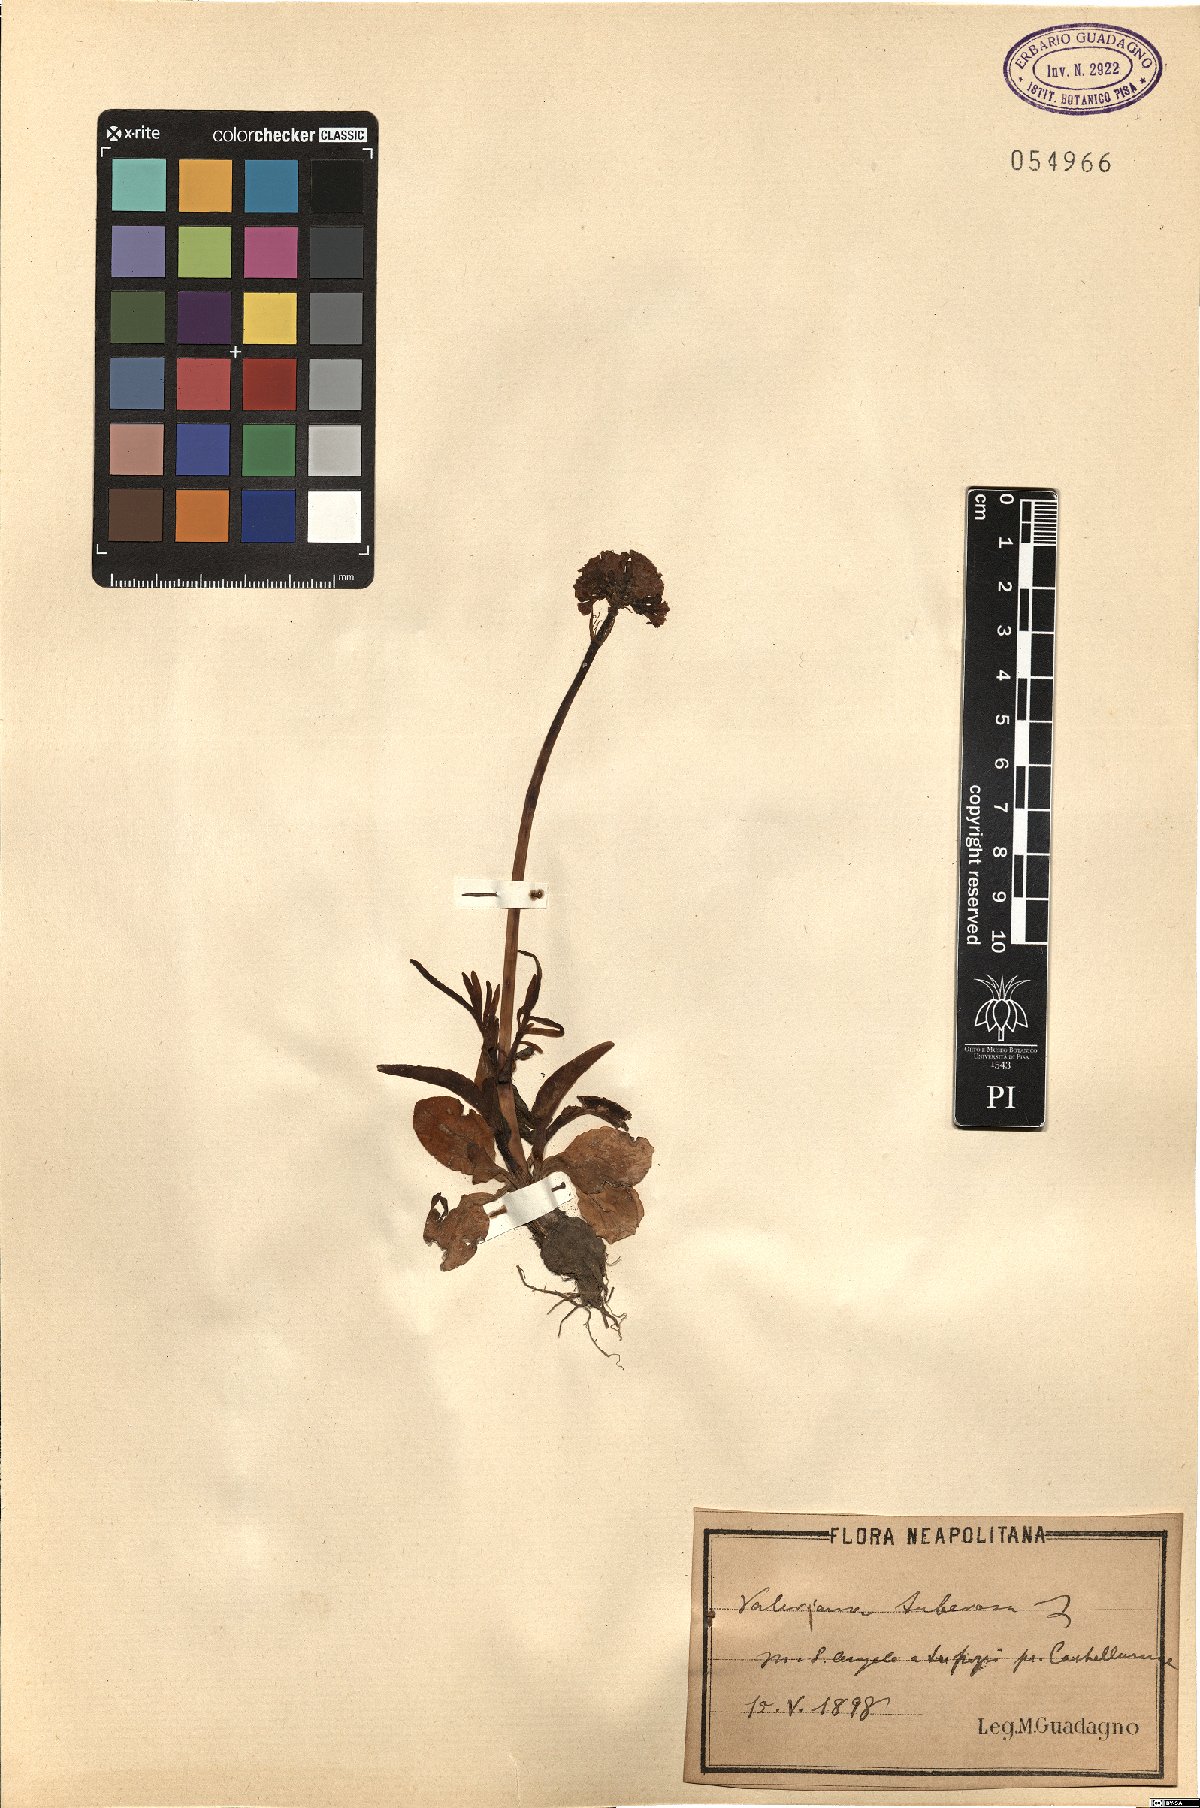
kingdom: Plantae
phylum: Tracheophyta
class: Magnoliopsida
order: Dipsacales
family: Caprifoliaceae
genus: Valeriana
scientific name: Valeriana tuberosa
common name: Tuberous valerian
